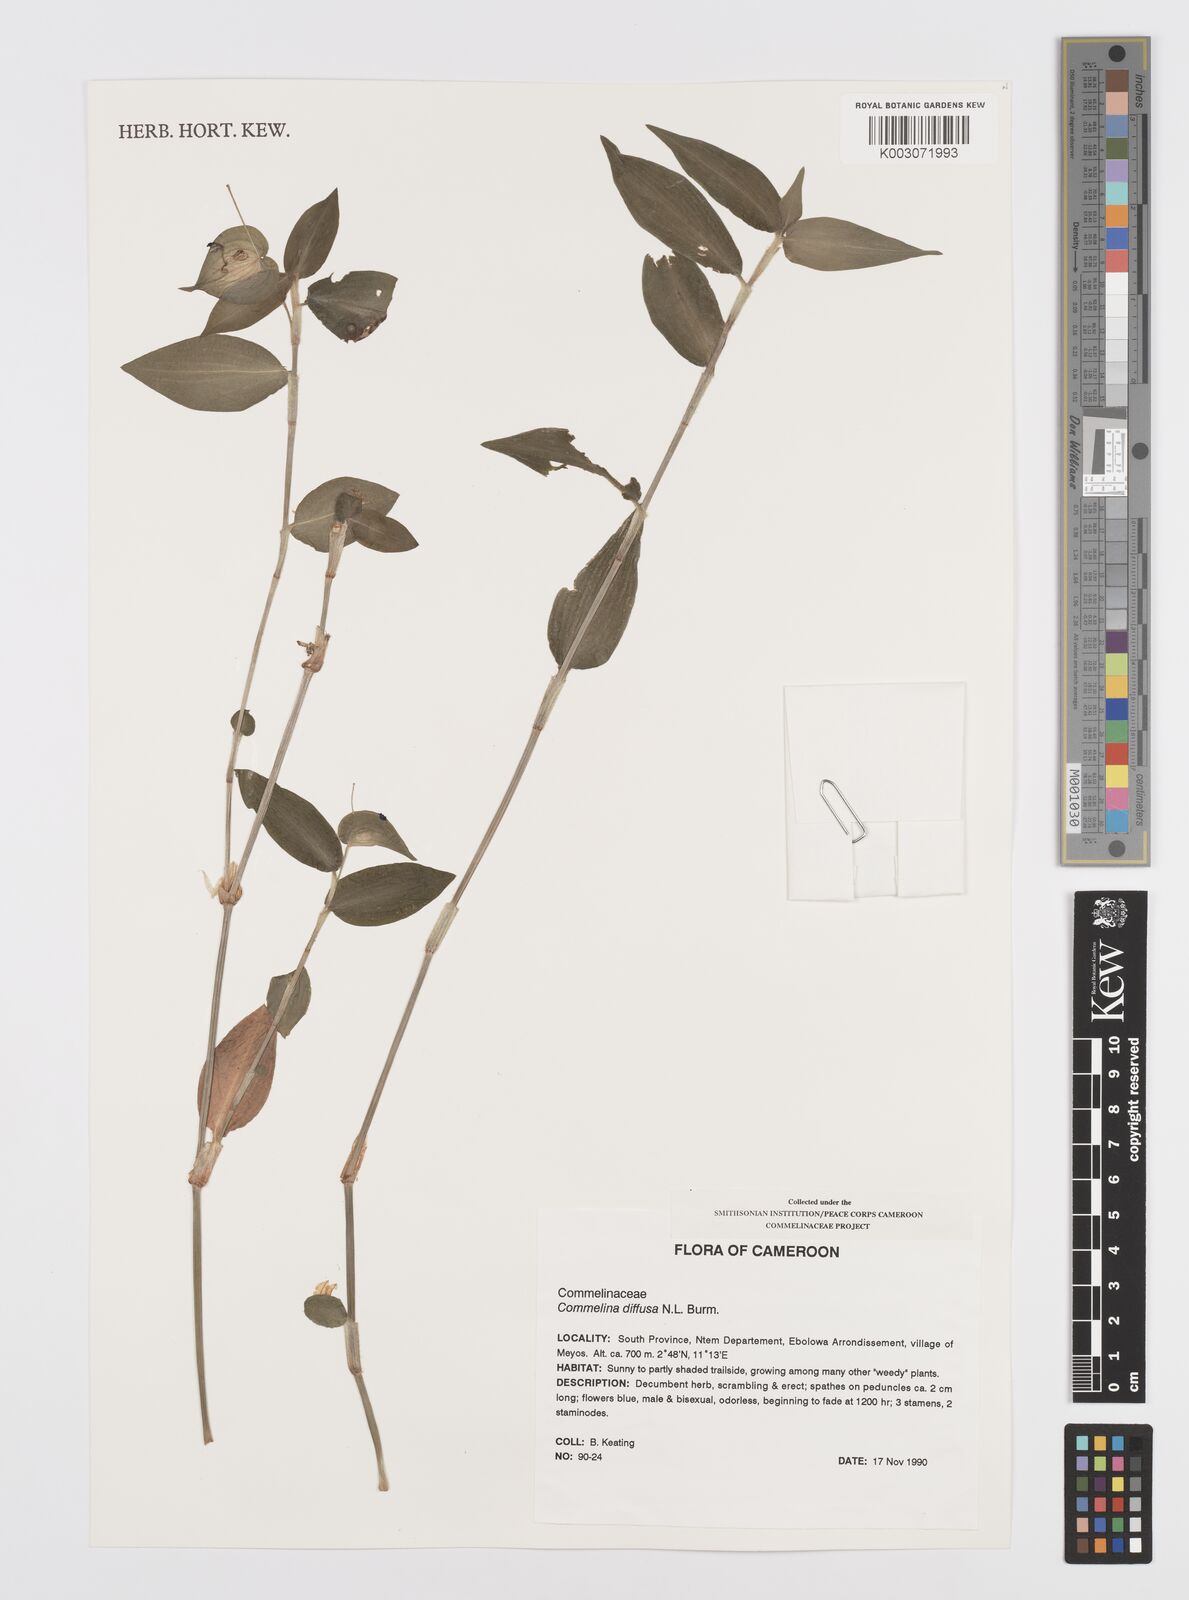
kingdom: Plantae
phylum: Tracheophyta
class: Liliopsida
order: Commelinales
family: Commelinaceae
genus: Commelina
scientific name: Commelina diffusa
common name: Climbing dayflower
